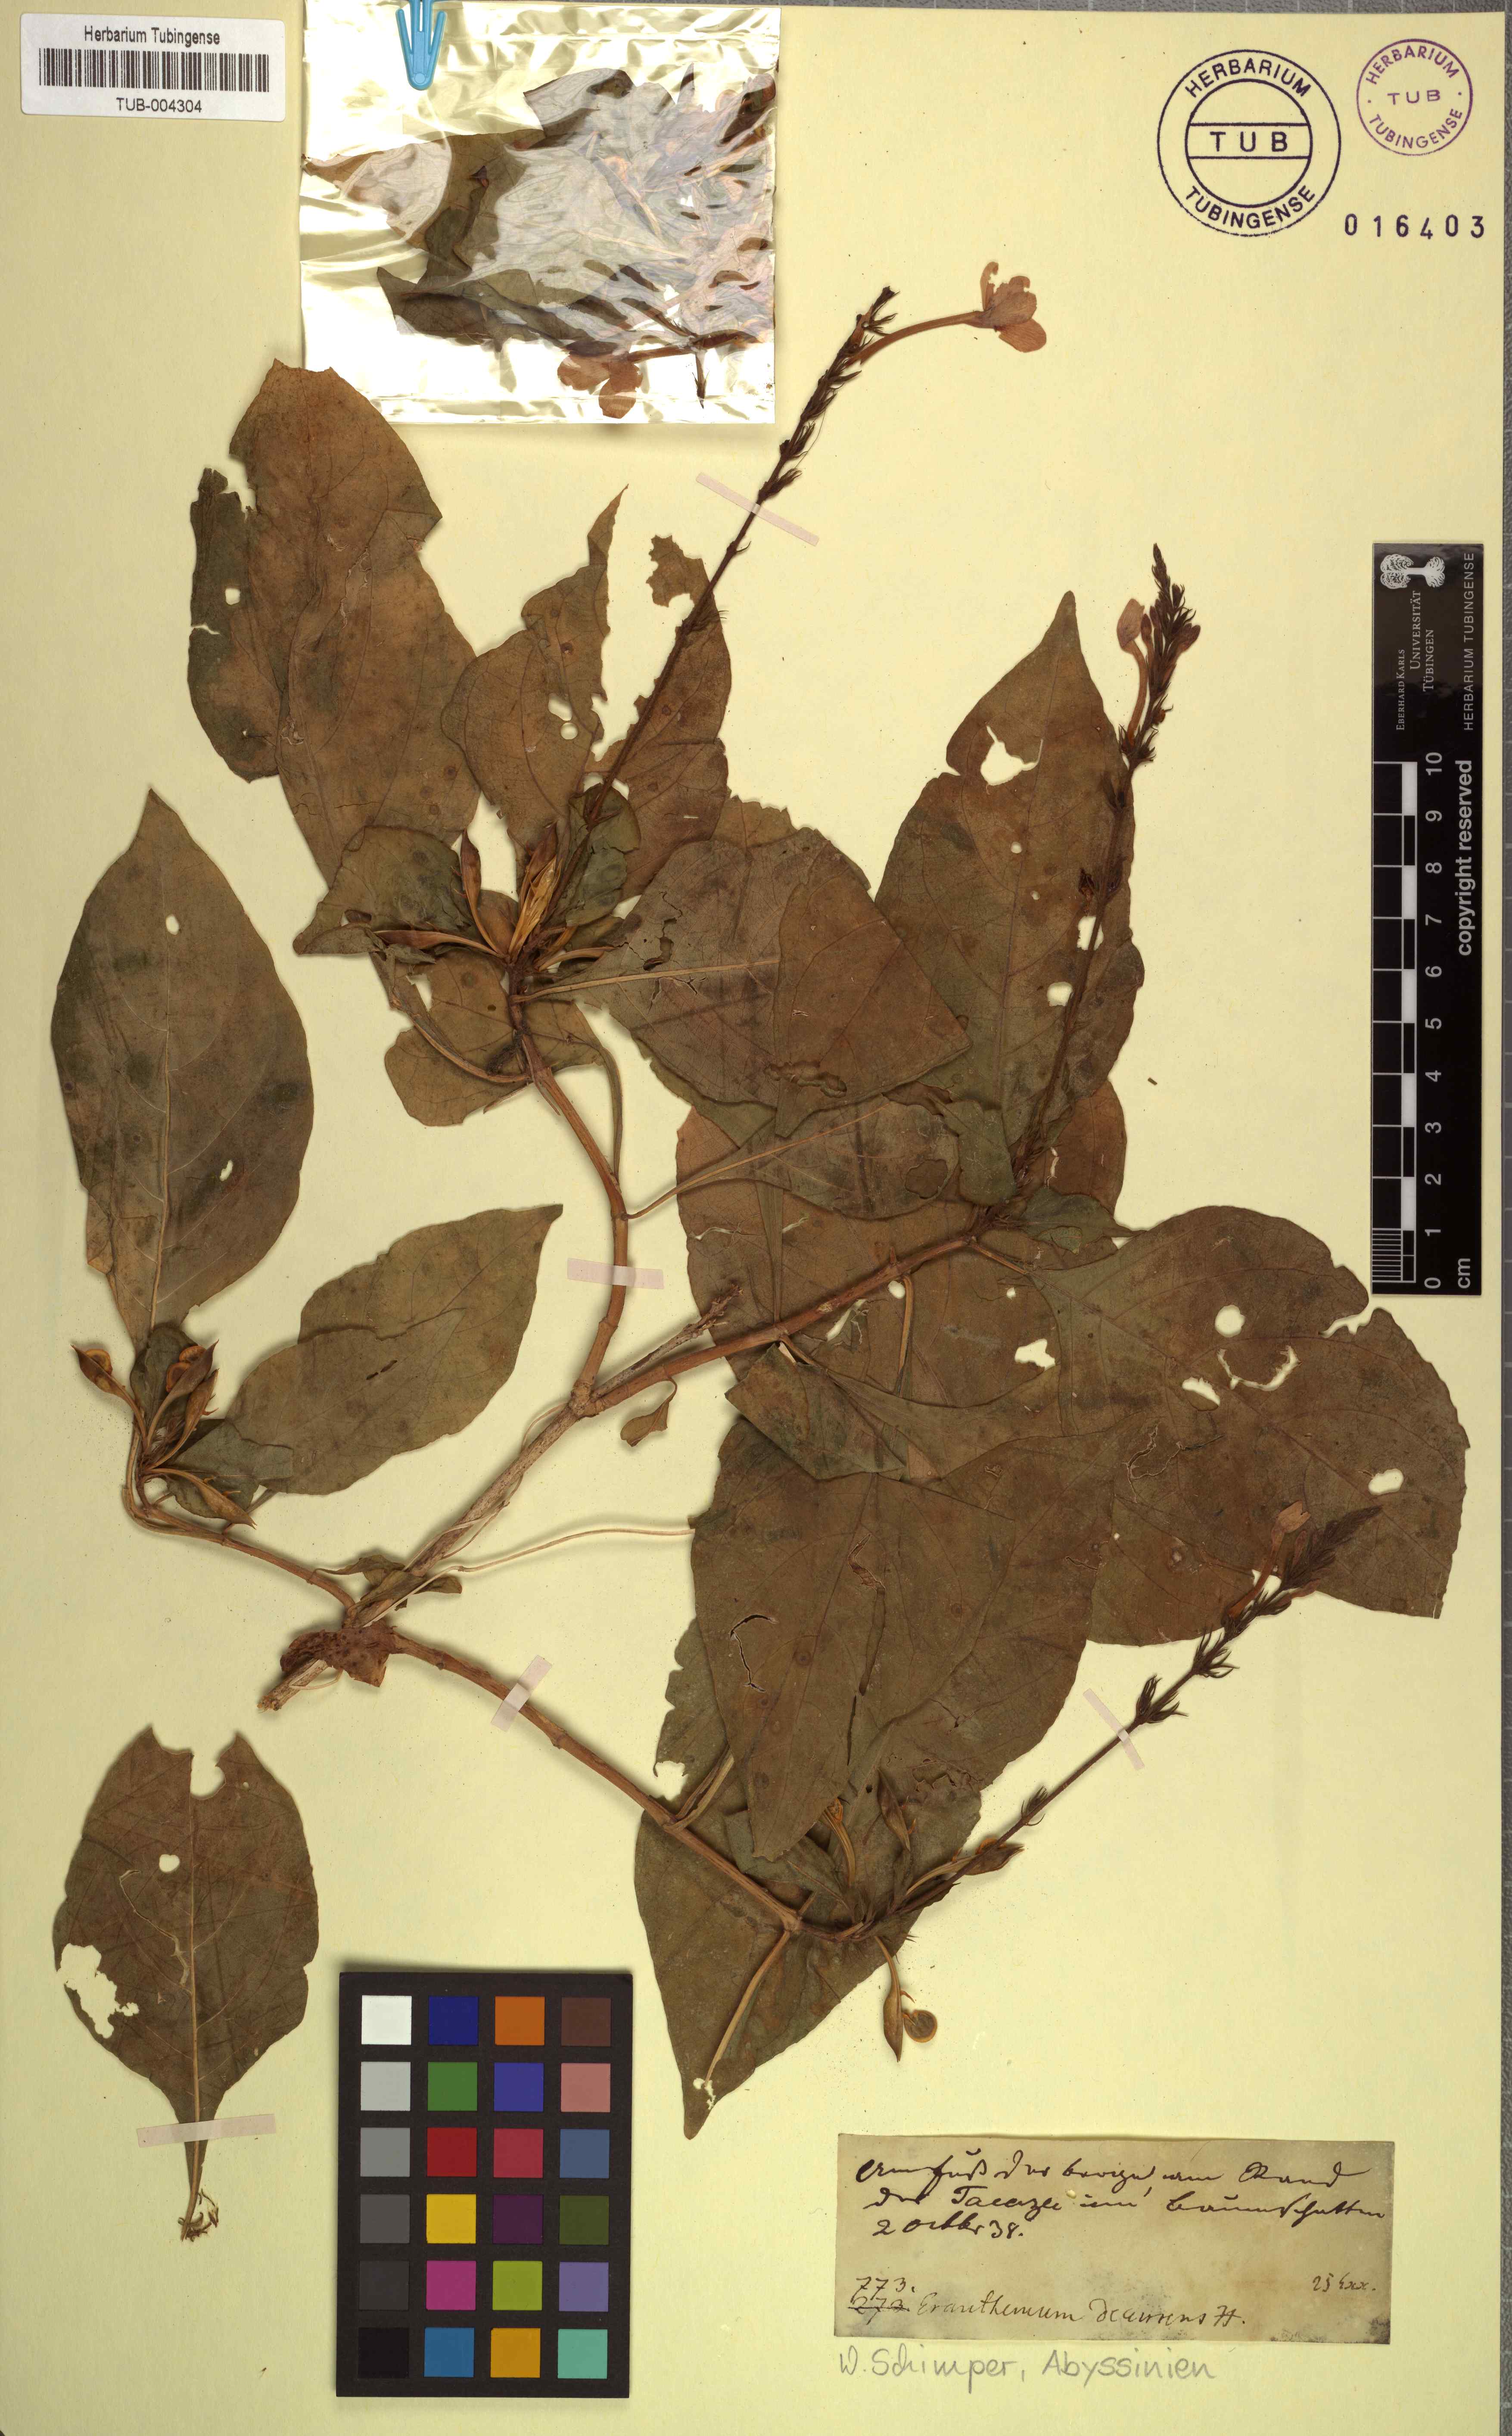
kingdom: Plantae
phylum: Tracheophyta
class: Magnoliopsida
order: Lamiales
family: Acanthaceae
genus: Ruspolia
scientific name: Ruspolia decurrens
